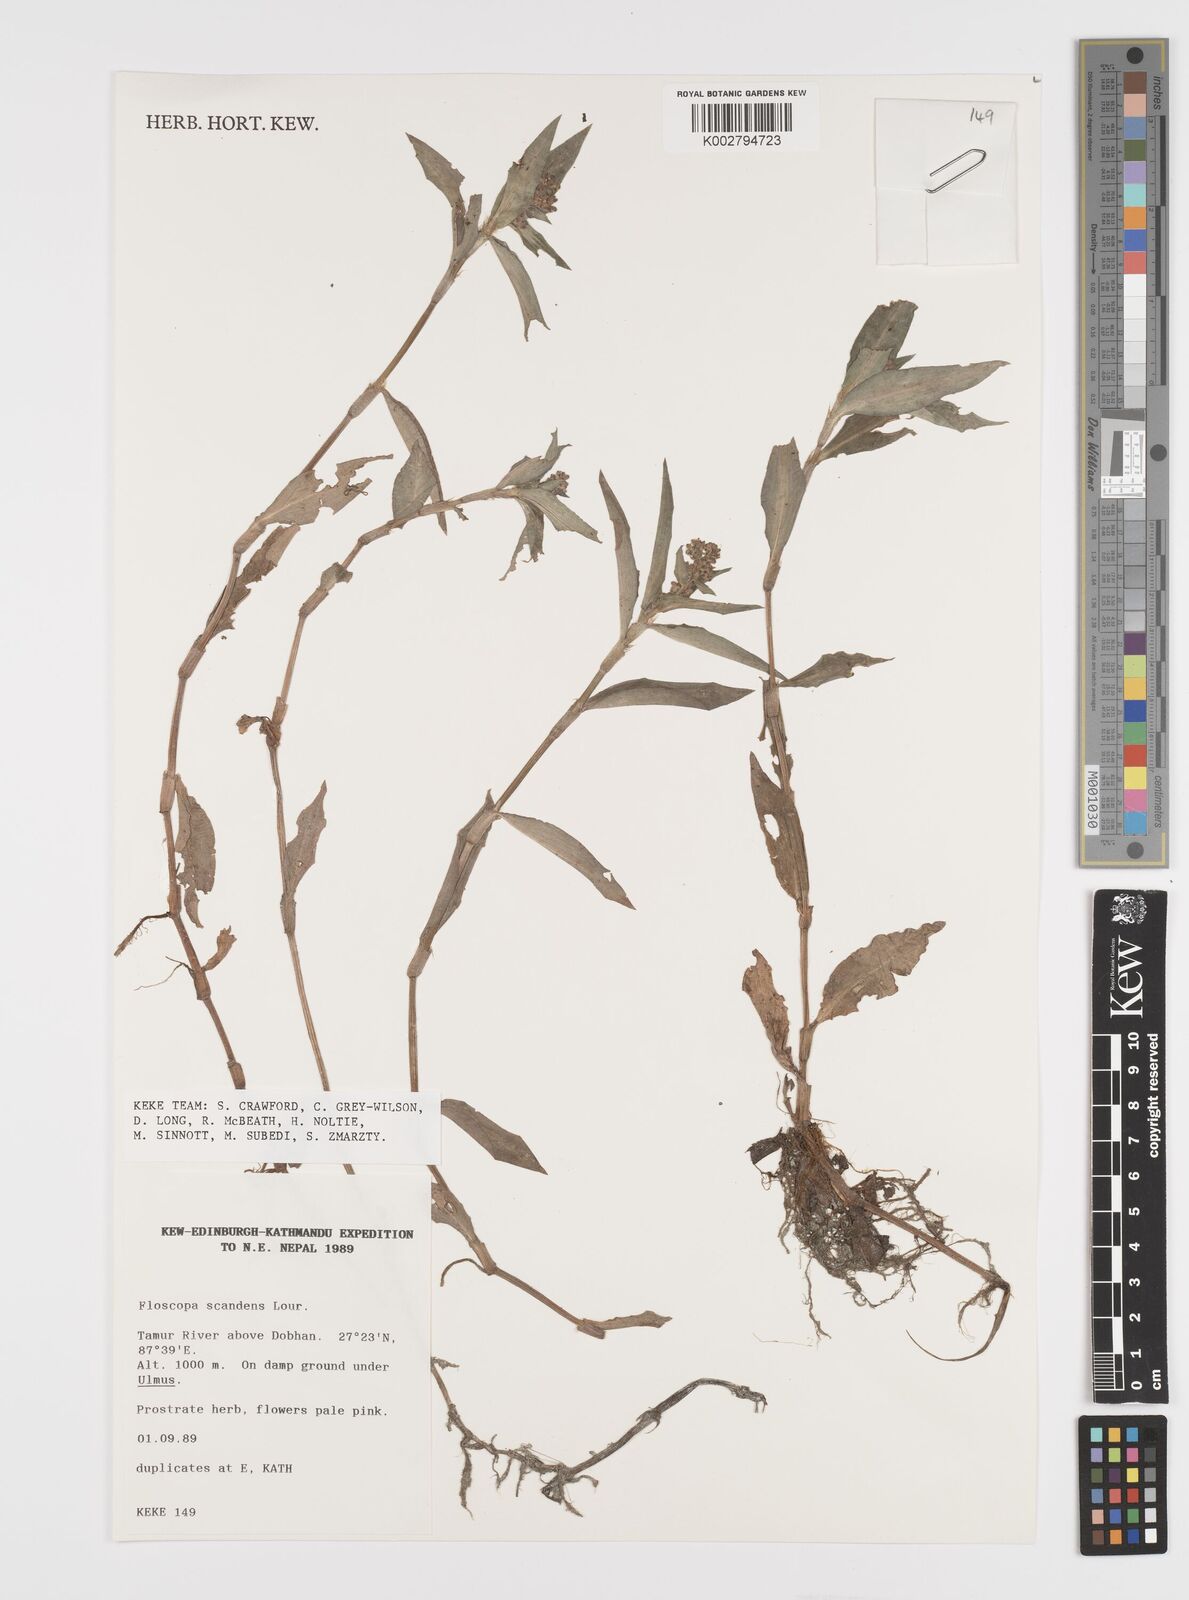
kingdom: Plantae
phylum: Tracheophyta
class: Liliopsida
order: Commelinales
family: Commelinaceae
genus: Floscopa
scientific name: Floscopa scandens
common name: Climbing flower cup
